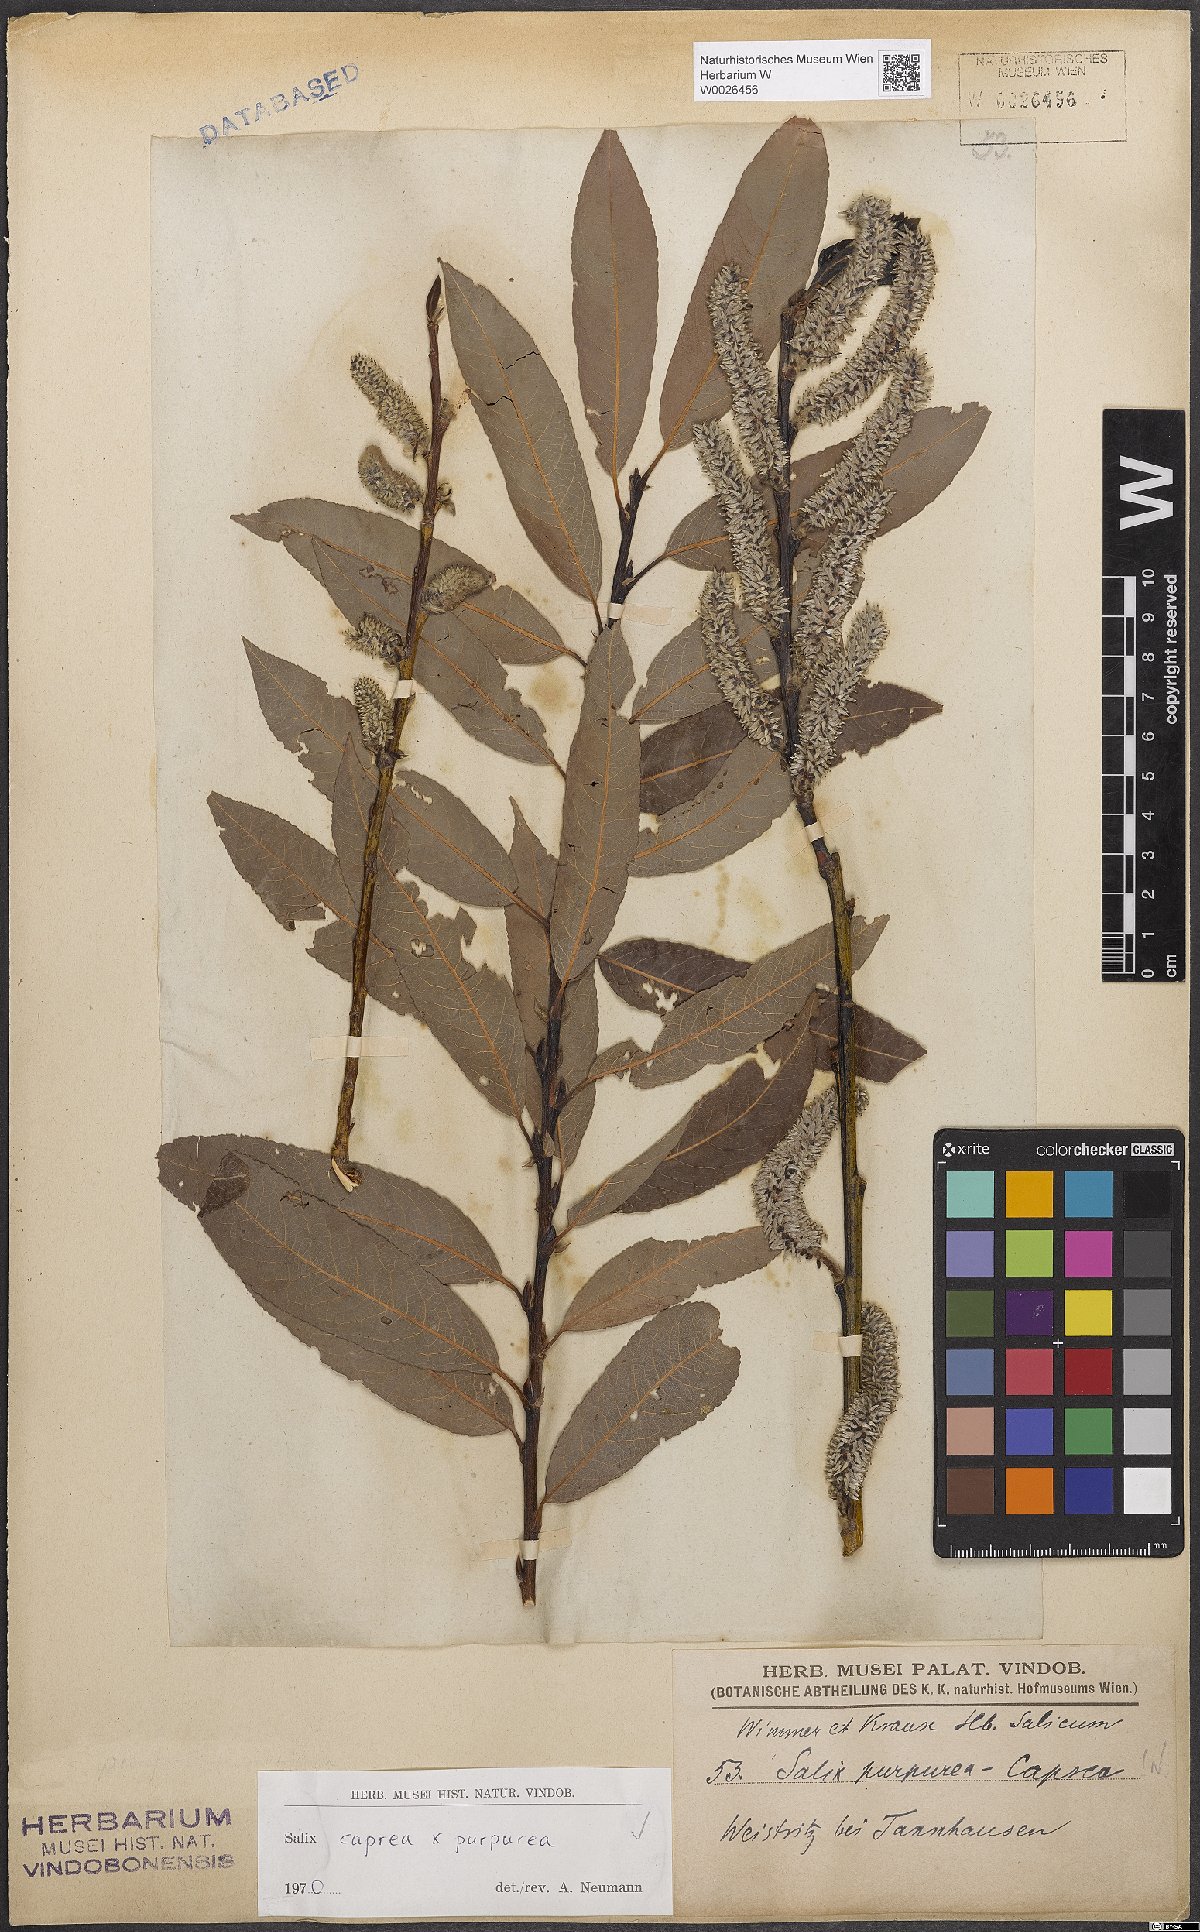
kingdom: Plantae
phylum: Tracheophyta
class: Magnoliopsida
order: Malpighiales
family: Salicaceae
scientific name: Salicaceae
